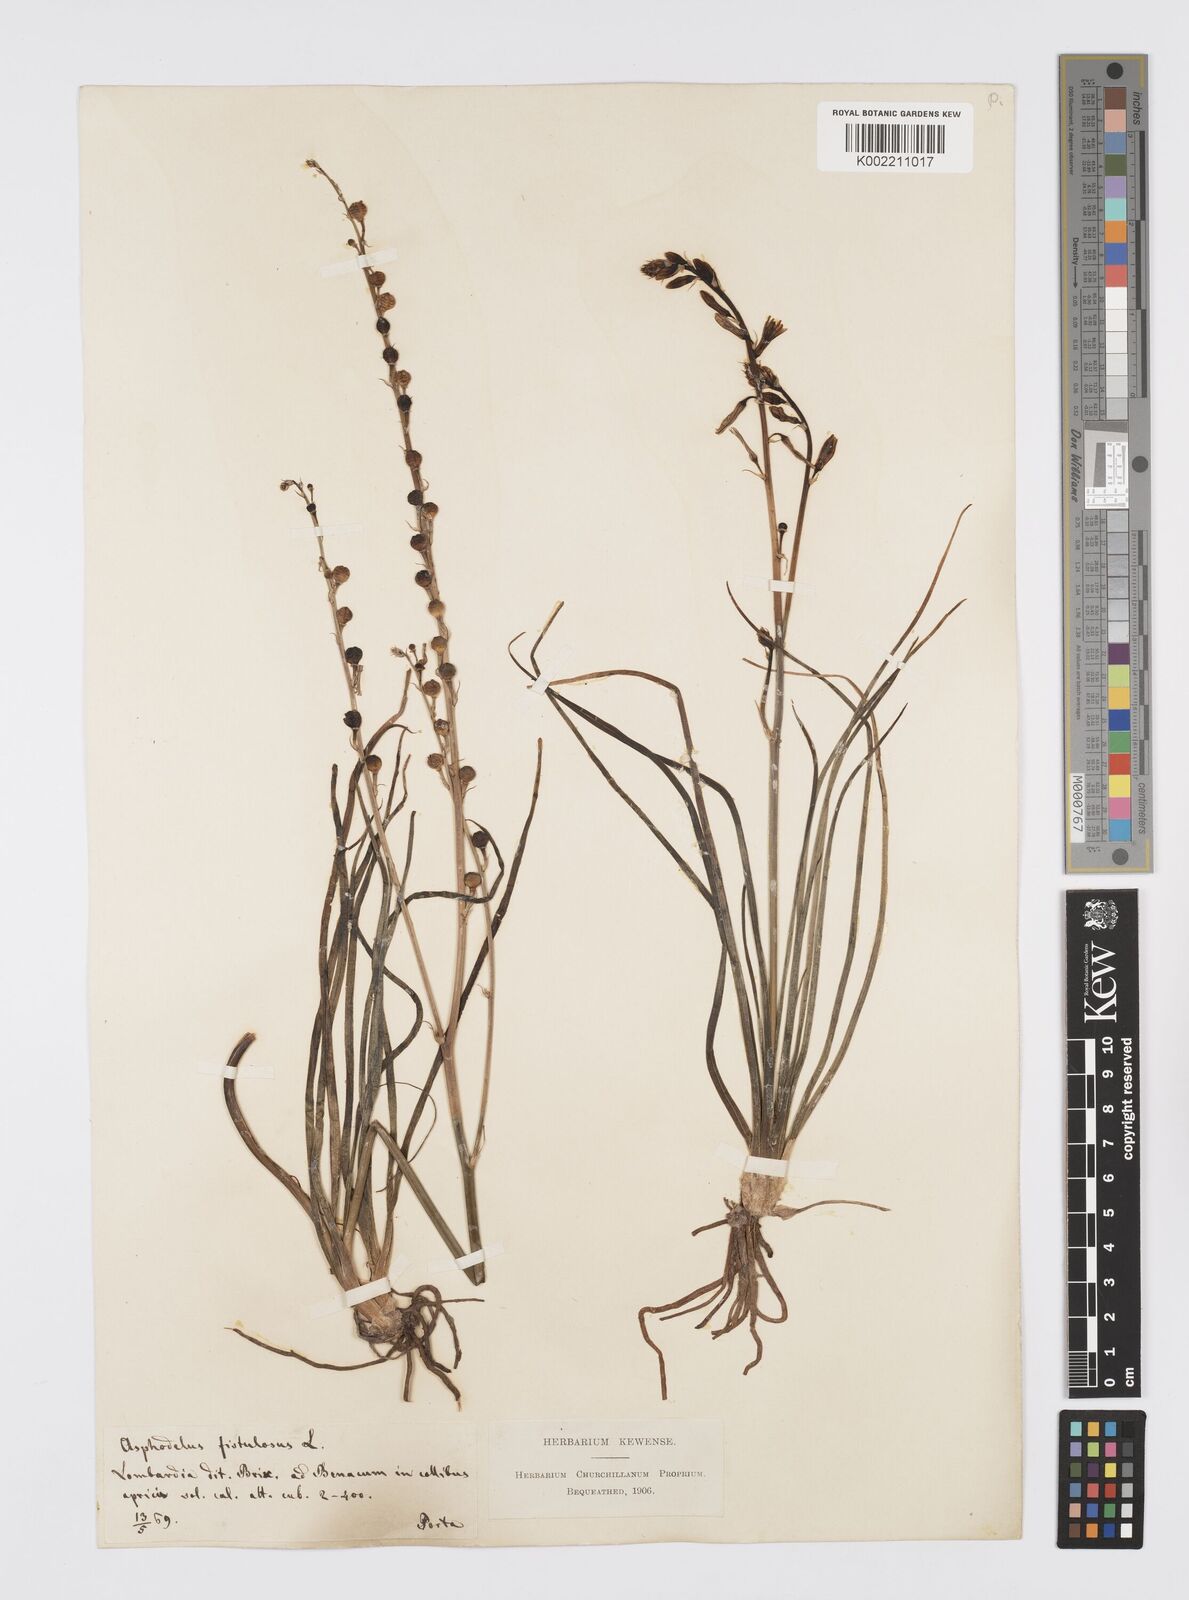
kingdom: Plantae
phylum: Tracheophyta
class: Liliopsida
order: Asparagales
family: Asphodelaceae
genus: Asphodelus
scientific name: Asphodelus fistulosus
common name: Onionweed
